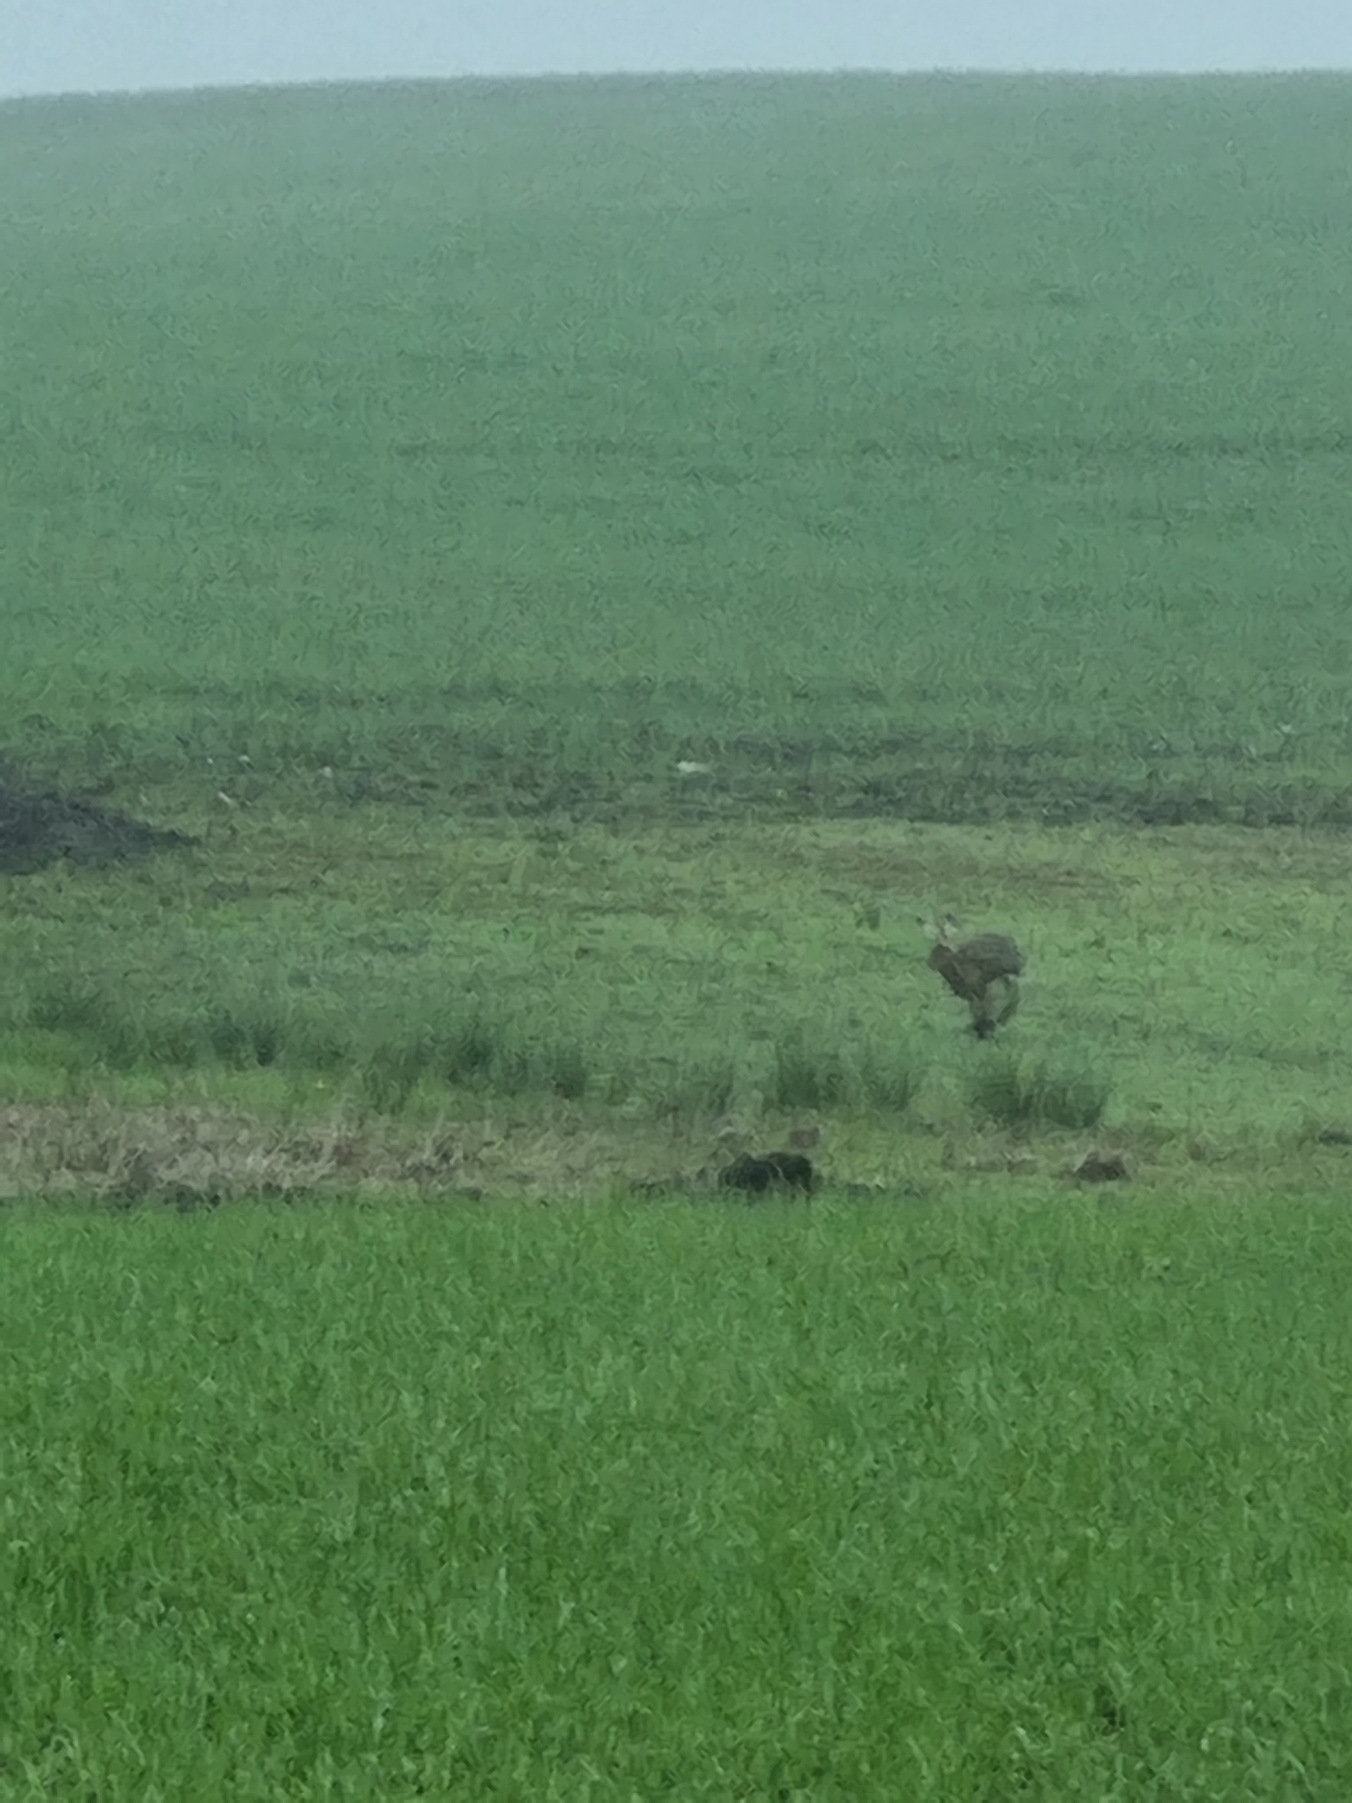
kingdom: Animalia
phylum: Chordata
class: Mammalia
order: Lagomorpha
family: Leporidae
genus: Lepus
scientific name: Lepus europaeus
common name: Hare
